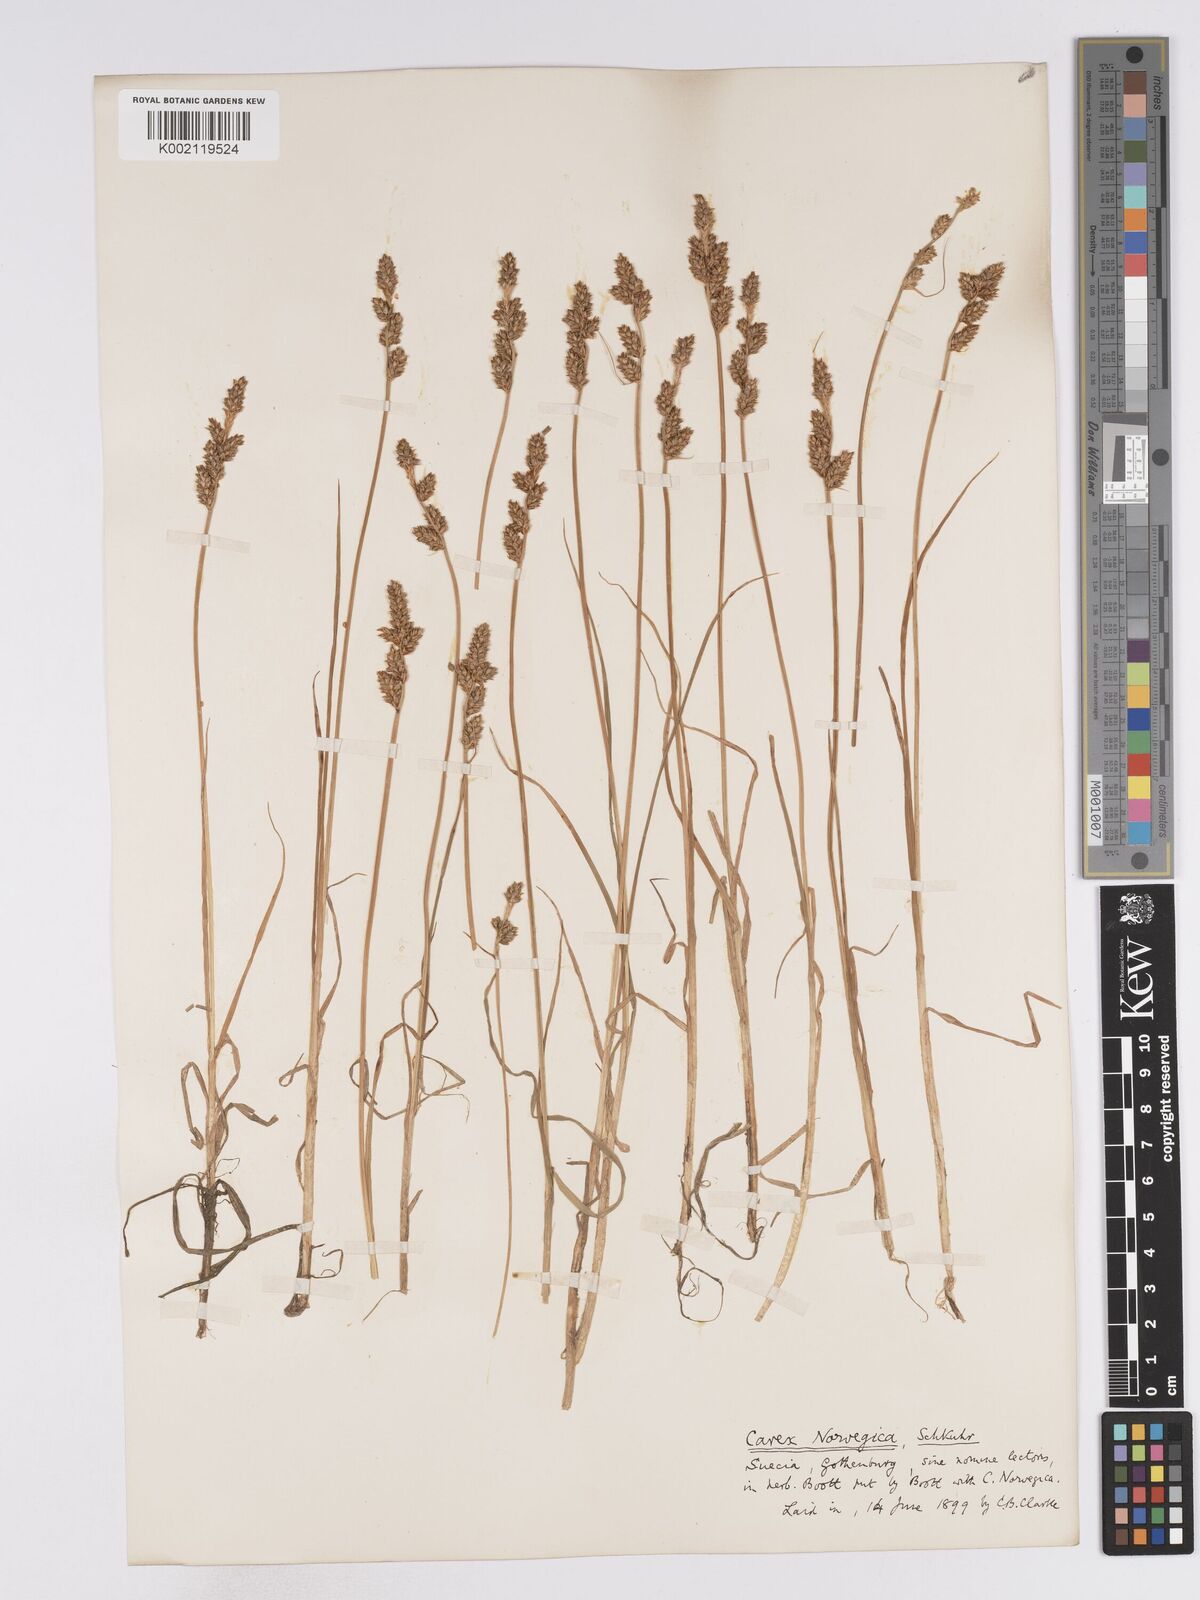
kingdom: Plantae
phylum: Tracheophyta
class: Liliopsida
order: Poales
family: Cyperaceae
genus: Carex
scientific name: Carex mackenziei
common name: Mackenzie's sedge
